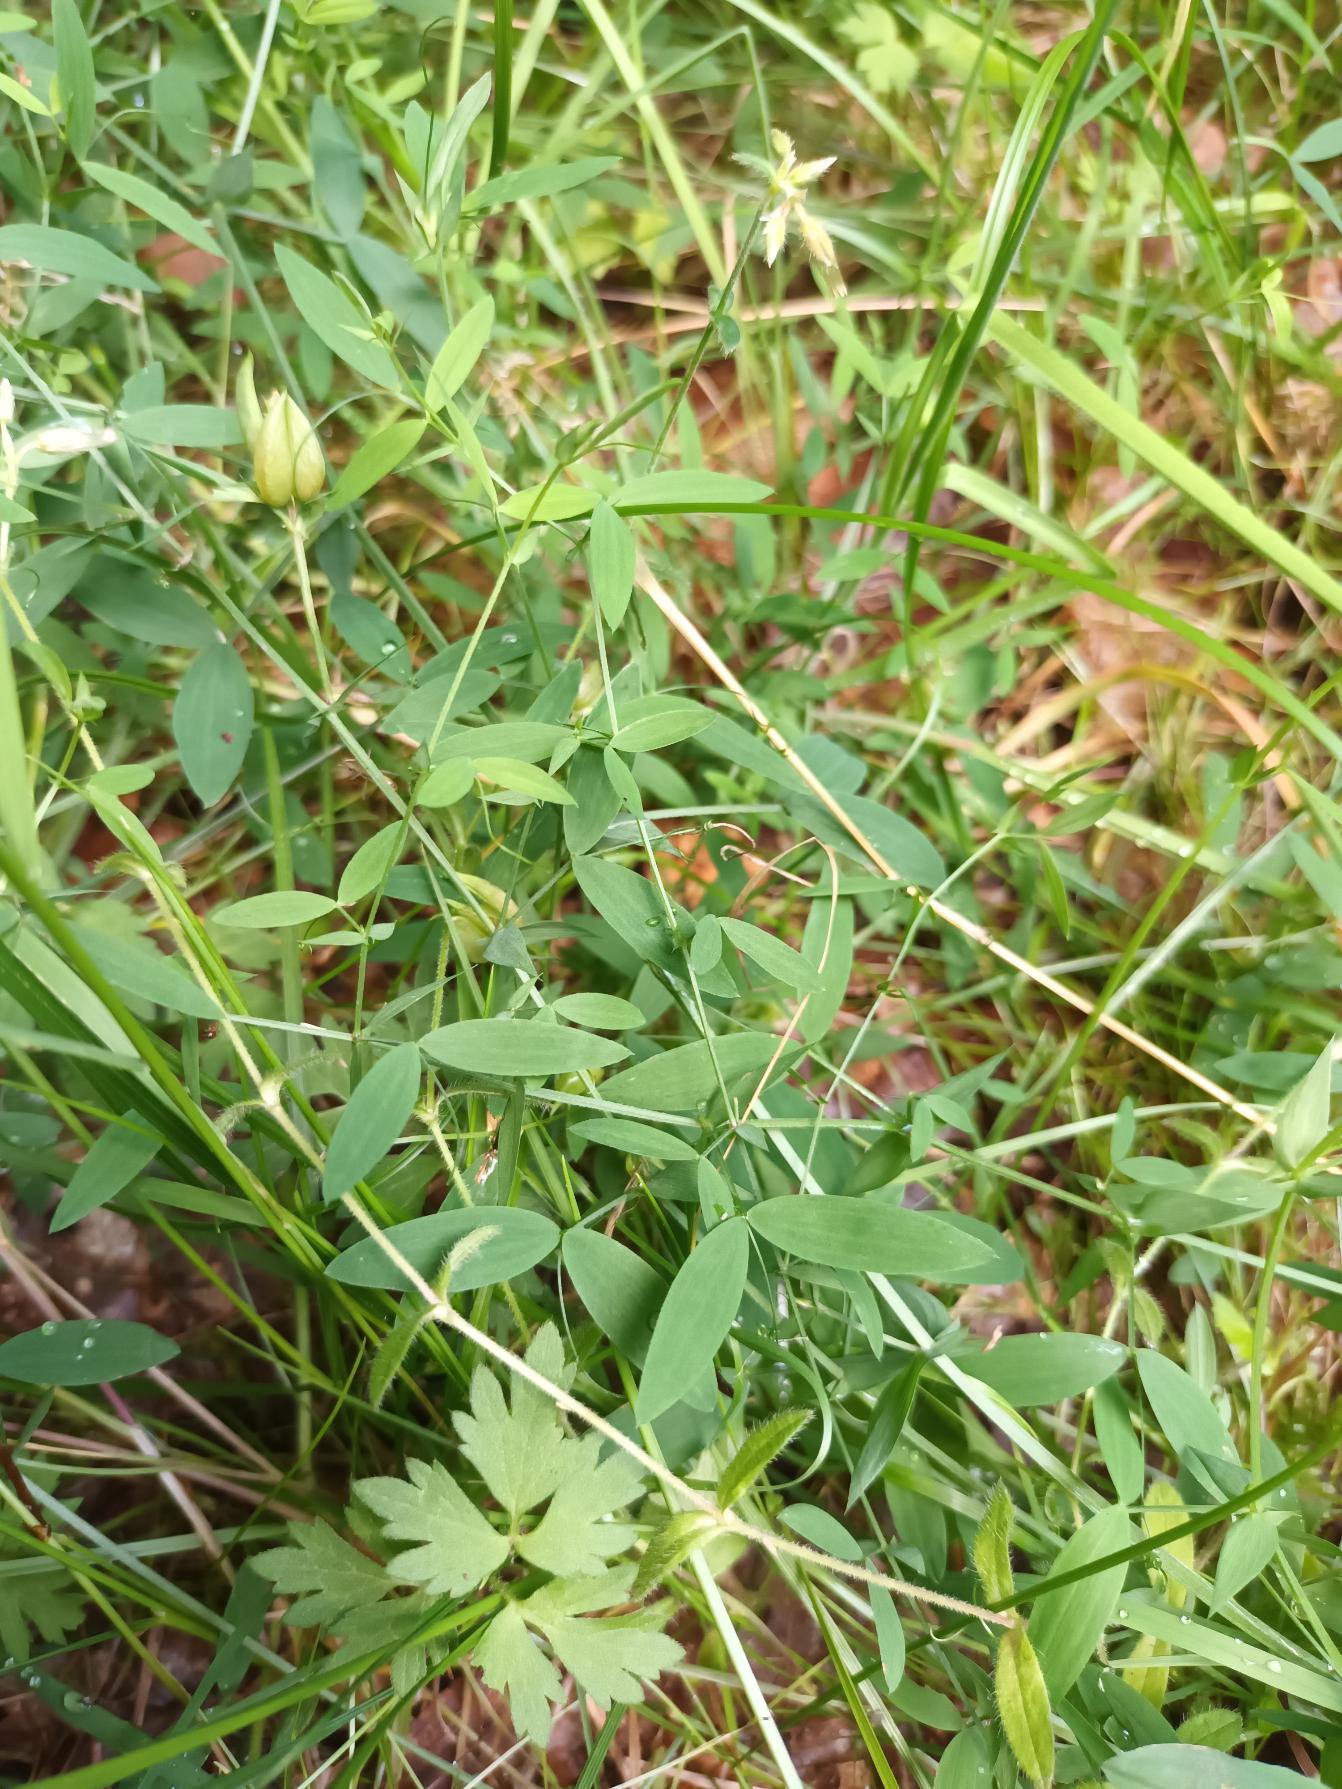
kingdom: Plantae
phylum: Tracheophyta
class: Magnoliopsida
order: Fabales
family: Fabaceae
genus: Lathyrus
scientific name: Lathyrus pratensis
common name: Gul fladbælg
